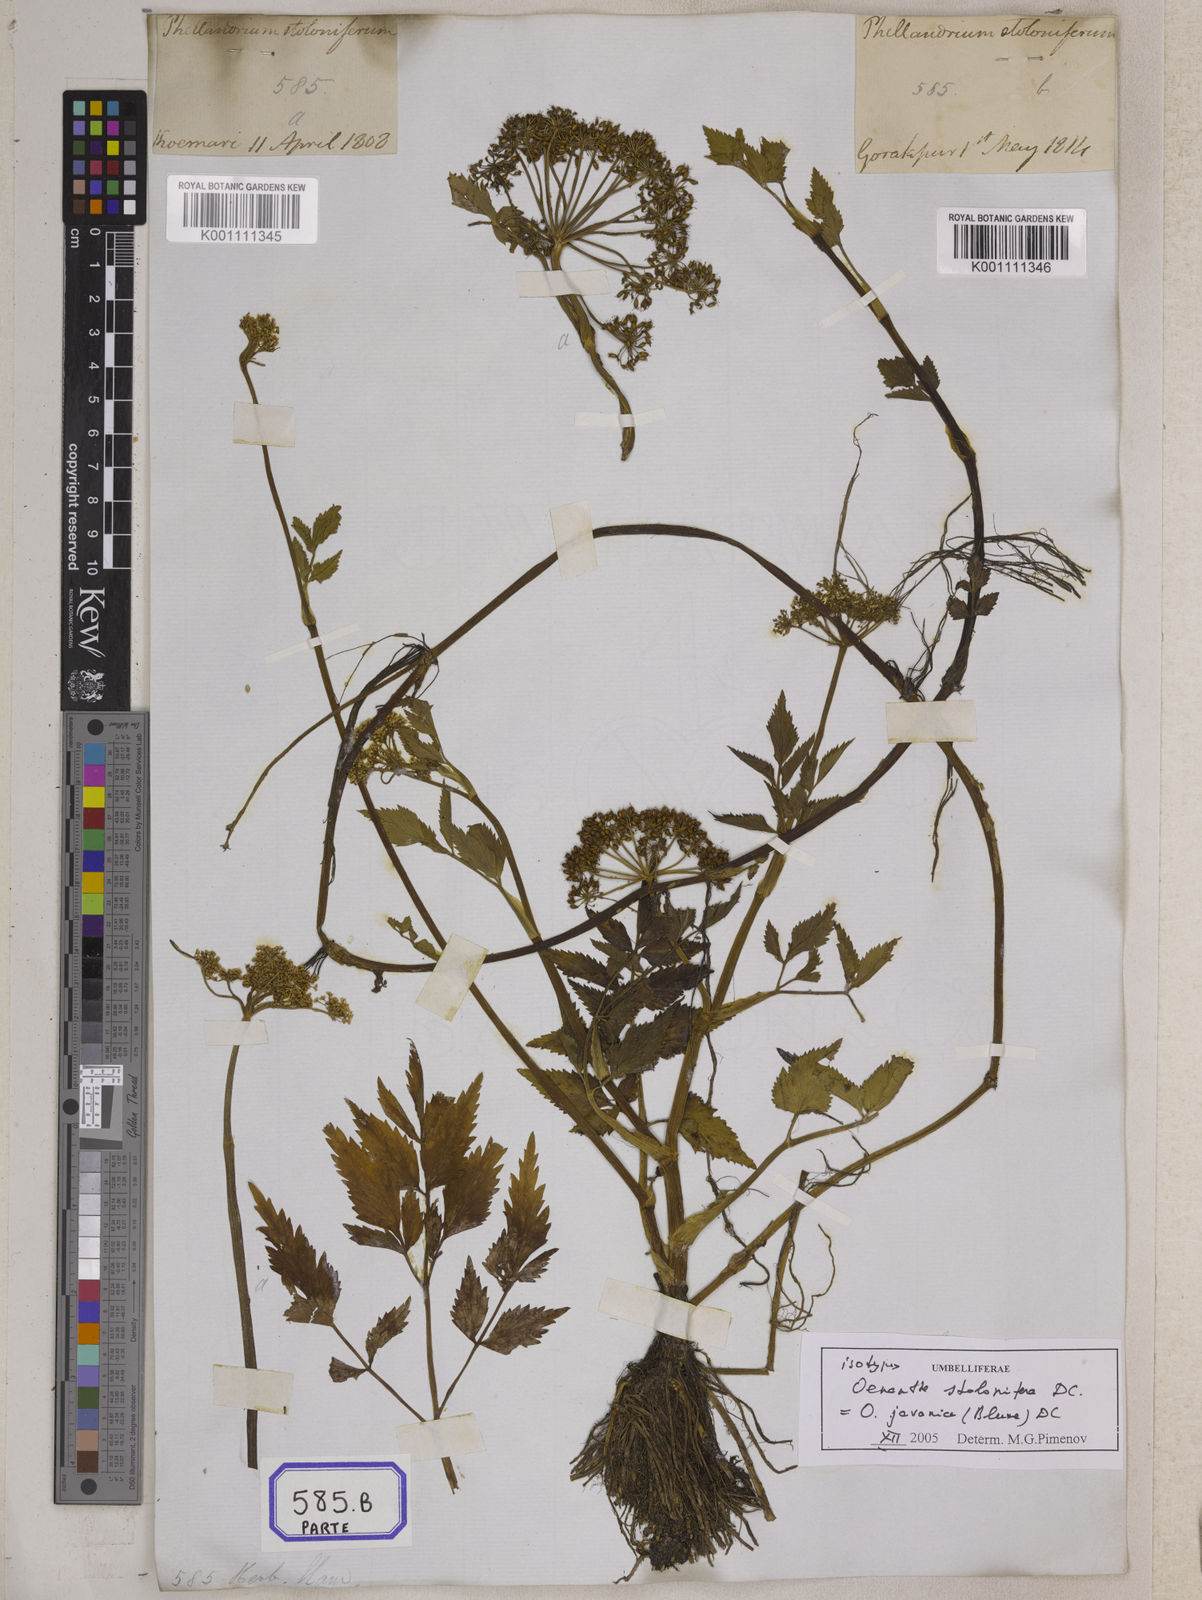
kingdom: Plantae
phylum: Tracheophyta
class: Magnoliopsida
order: Apiales
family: Apiaceae
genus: Oenanthe
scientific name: Oenanthe
